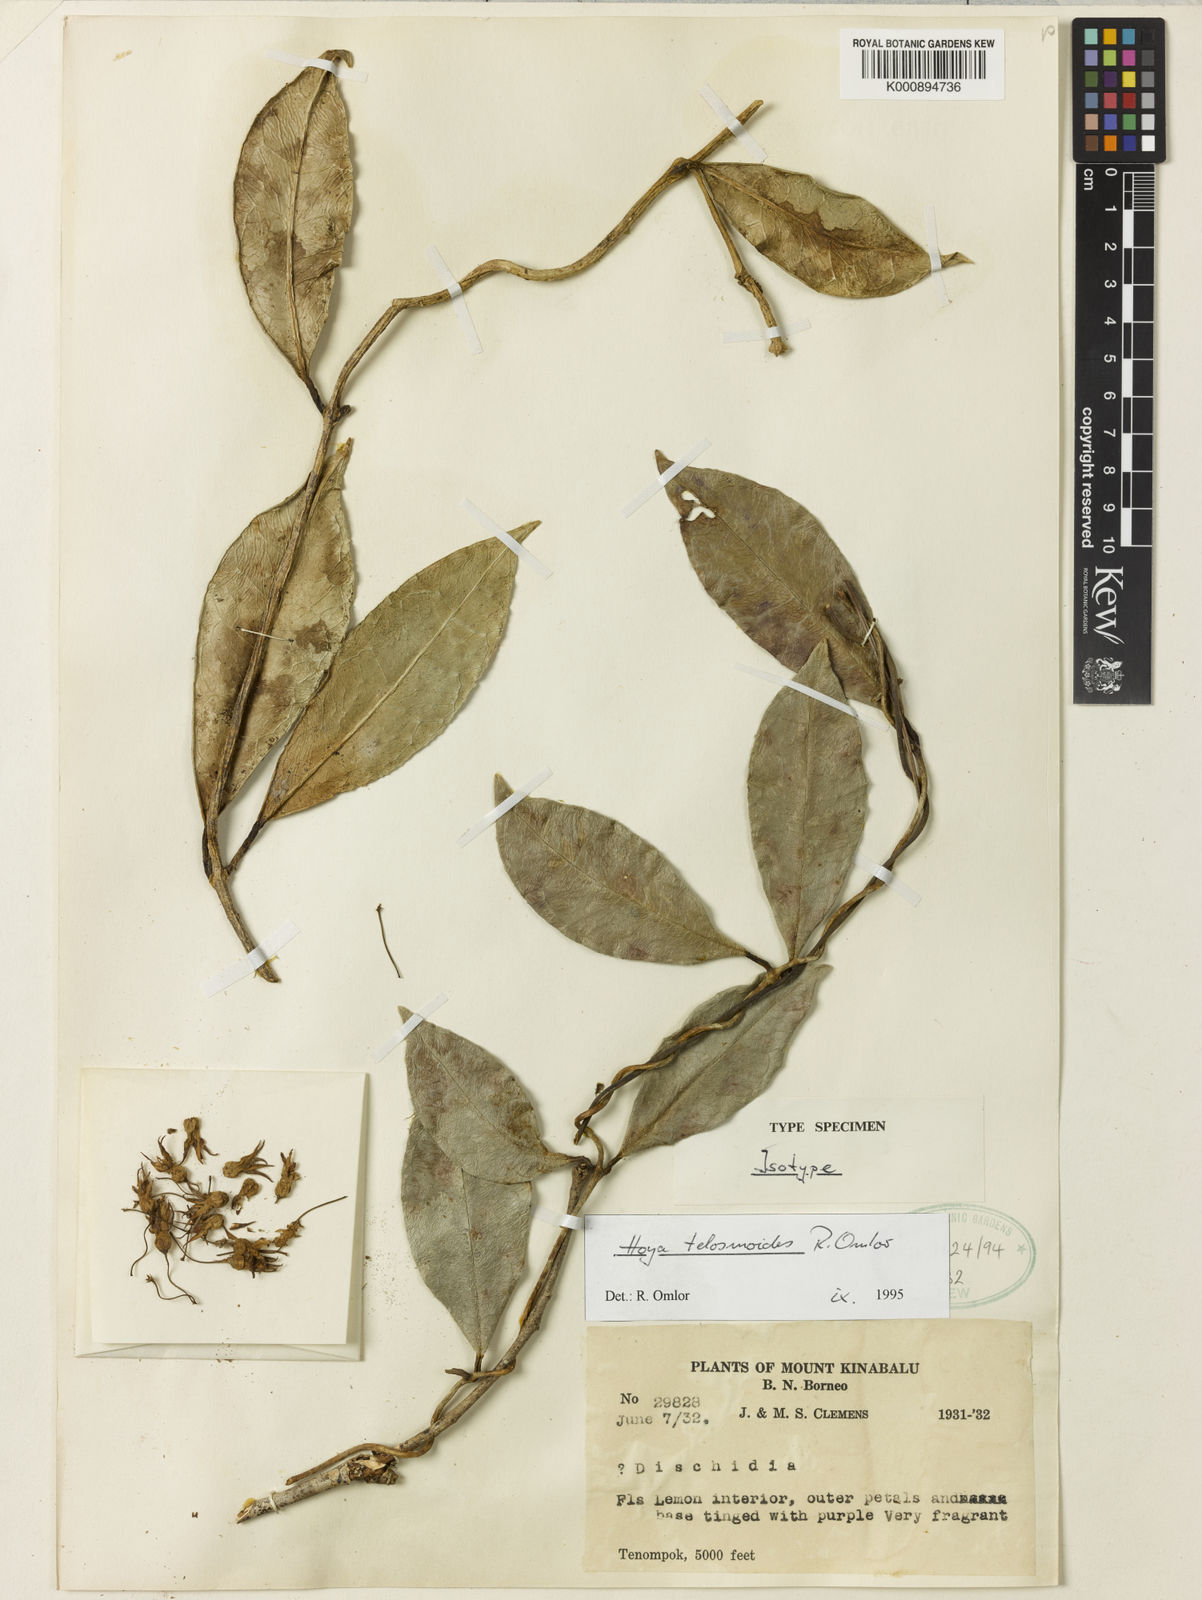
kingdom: Plantae
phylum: Tracheophyta
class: Magnoliopsida
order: Gentianales
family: Apocynaceae
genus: Hoya
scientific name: Hoya telosmoides
